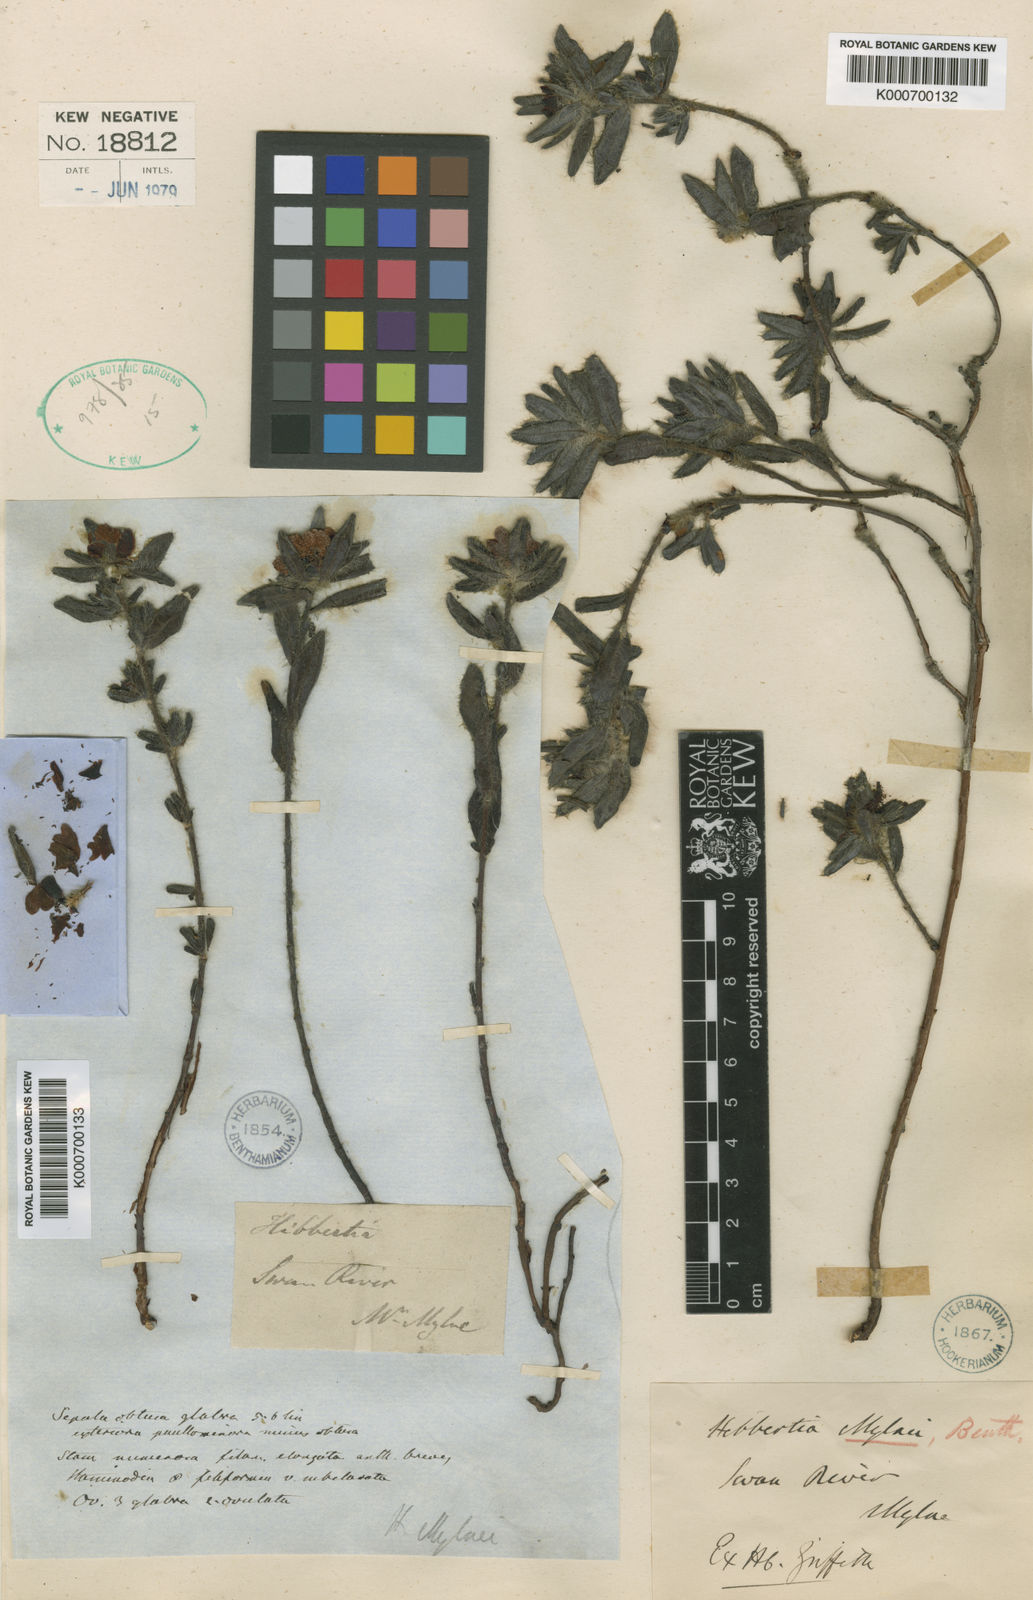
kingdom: Plantae
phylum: Tracheophyta
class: Magnoliopsida
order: Dilleniales
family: Dilleniaceae
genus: Hibbertia
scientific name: Hibbertia mylnei
